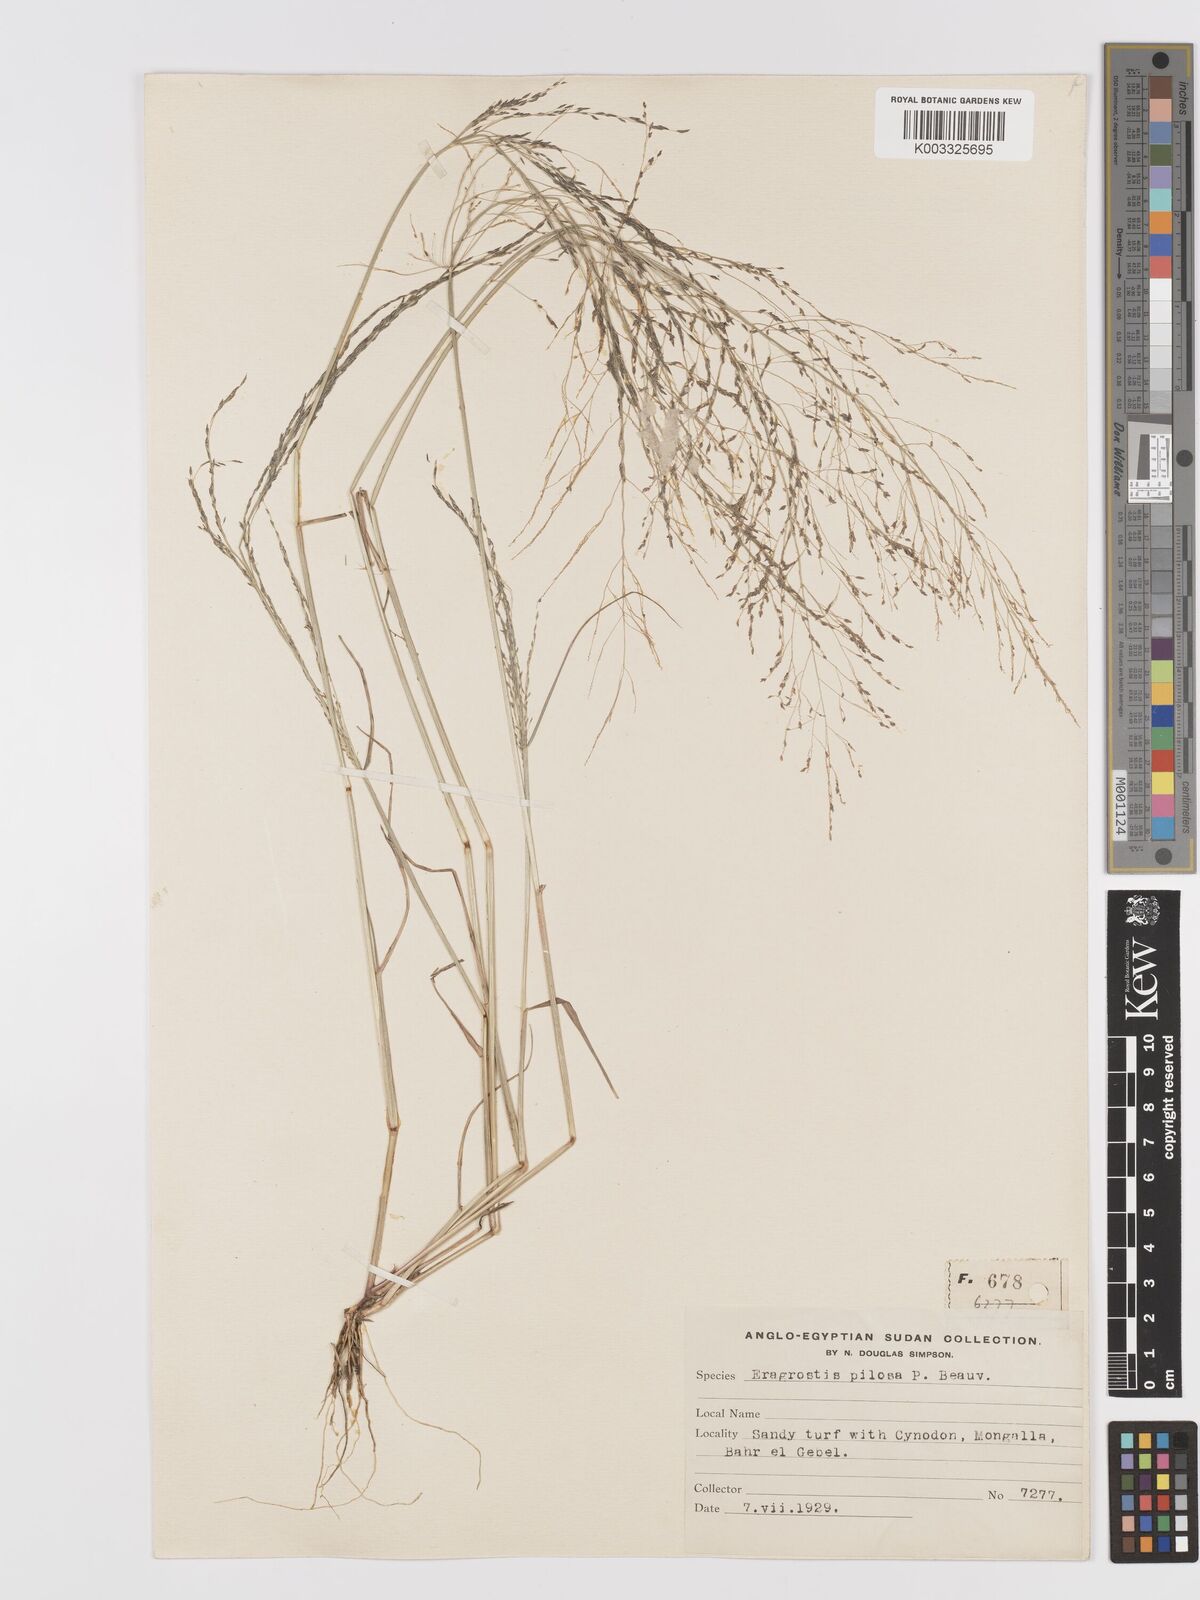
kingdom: Plantae
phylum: Tracheophyta
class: Liliopsida
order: Poales
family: Poaceae
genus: Eragrostis
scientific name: Eragrostis pilosa
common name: Indian lovegrass
